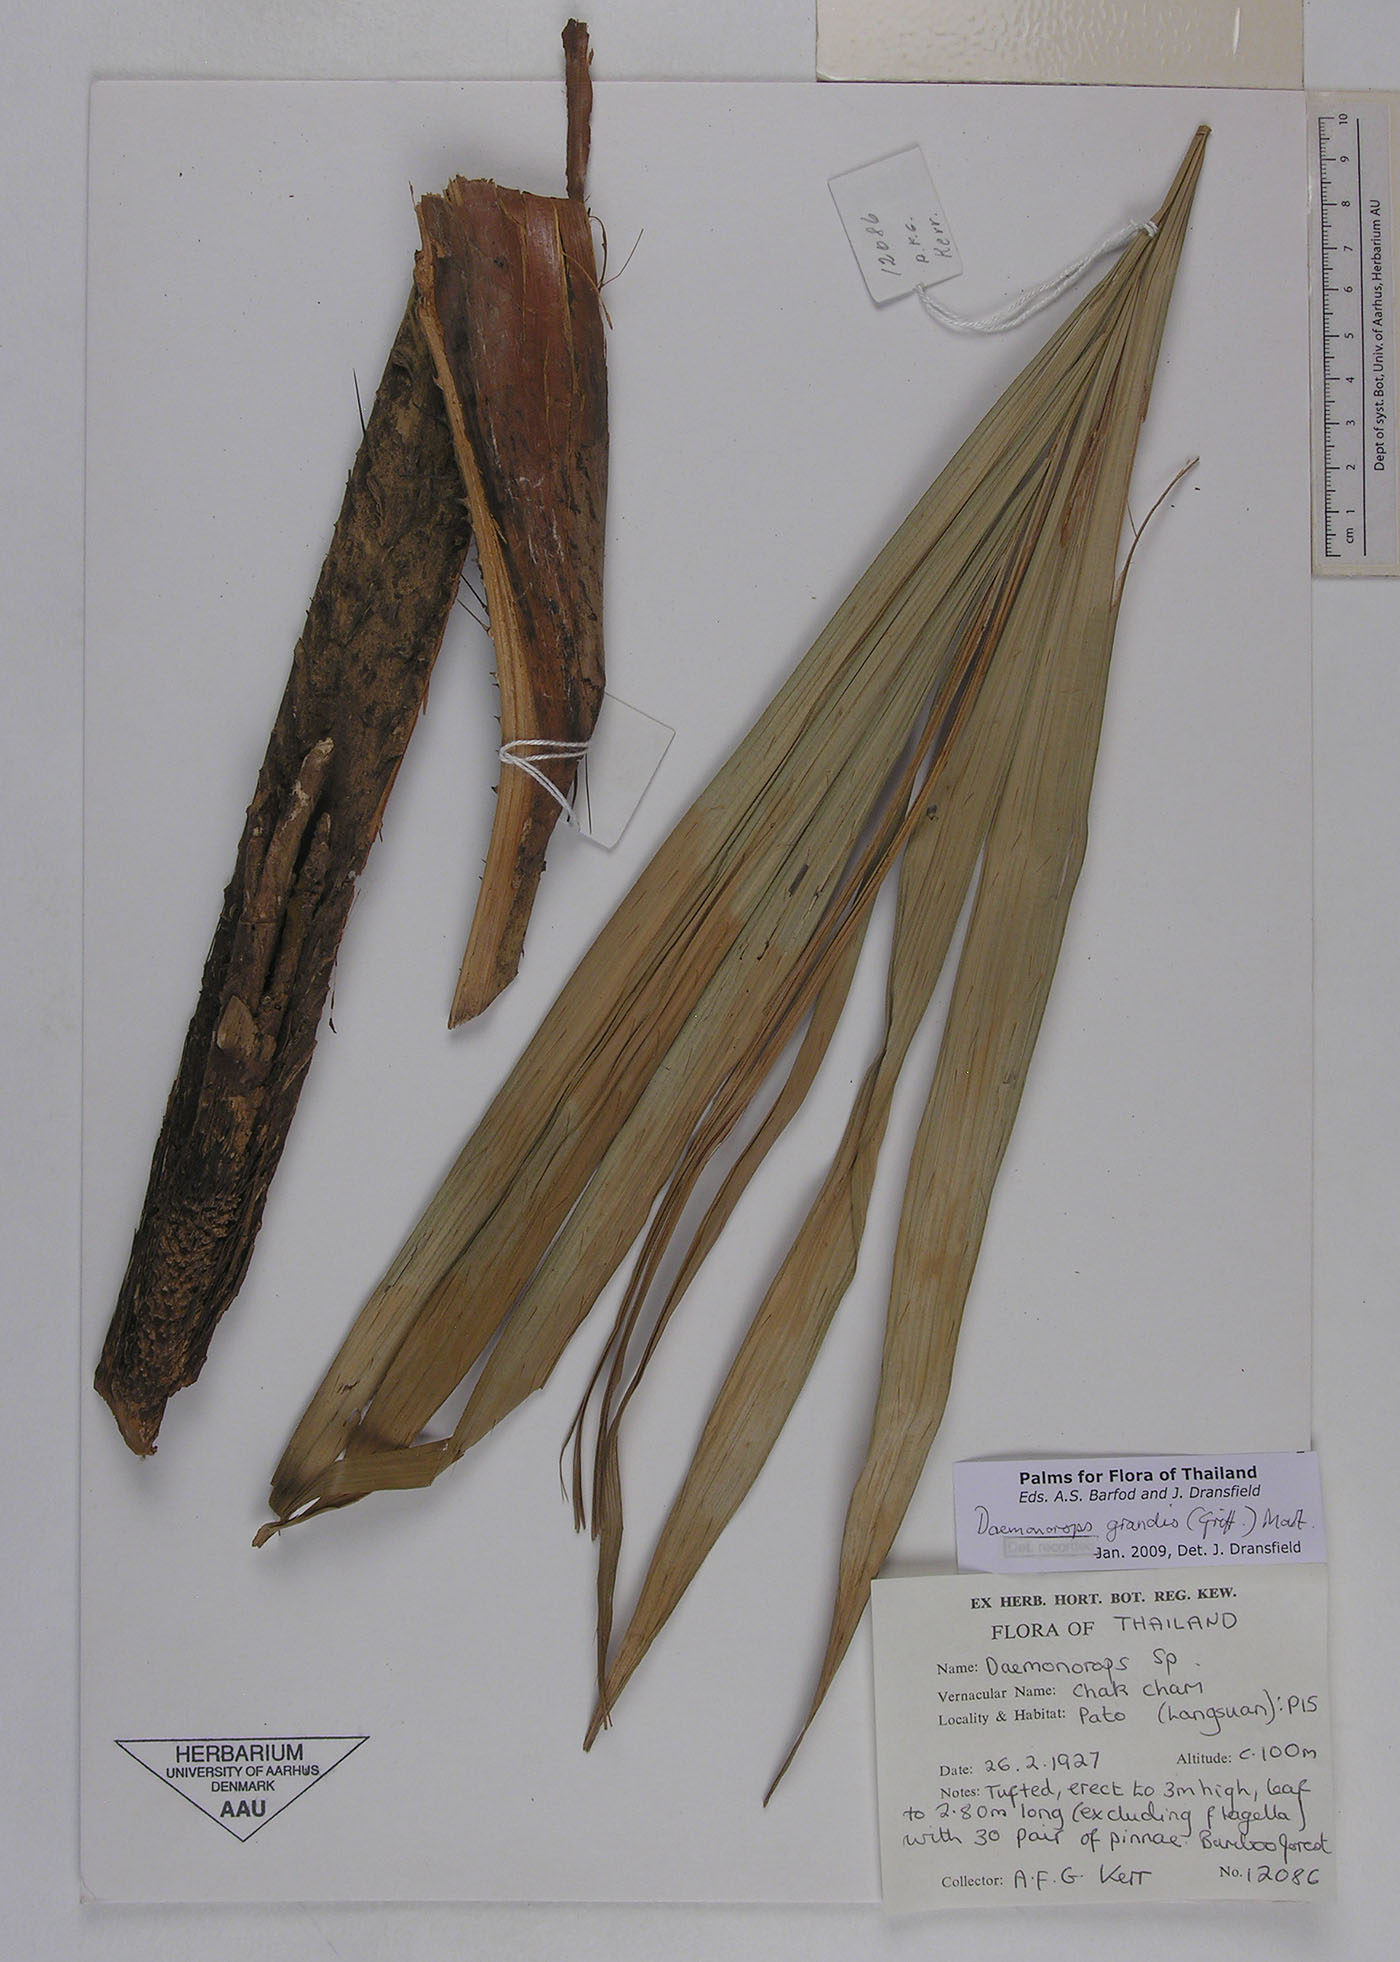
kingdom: Plantae
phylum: Tracheophyta
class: Liliopsida
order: Arecales
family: Arecaceae
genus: Calamus
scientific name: Calamus melanochaetes
